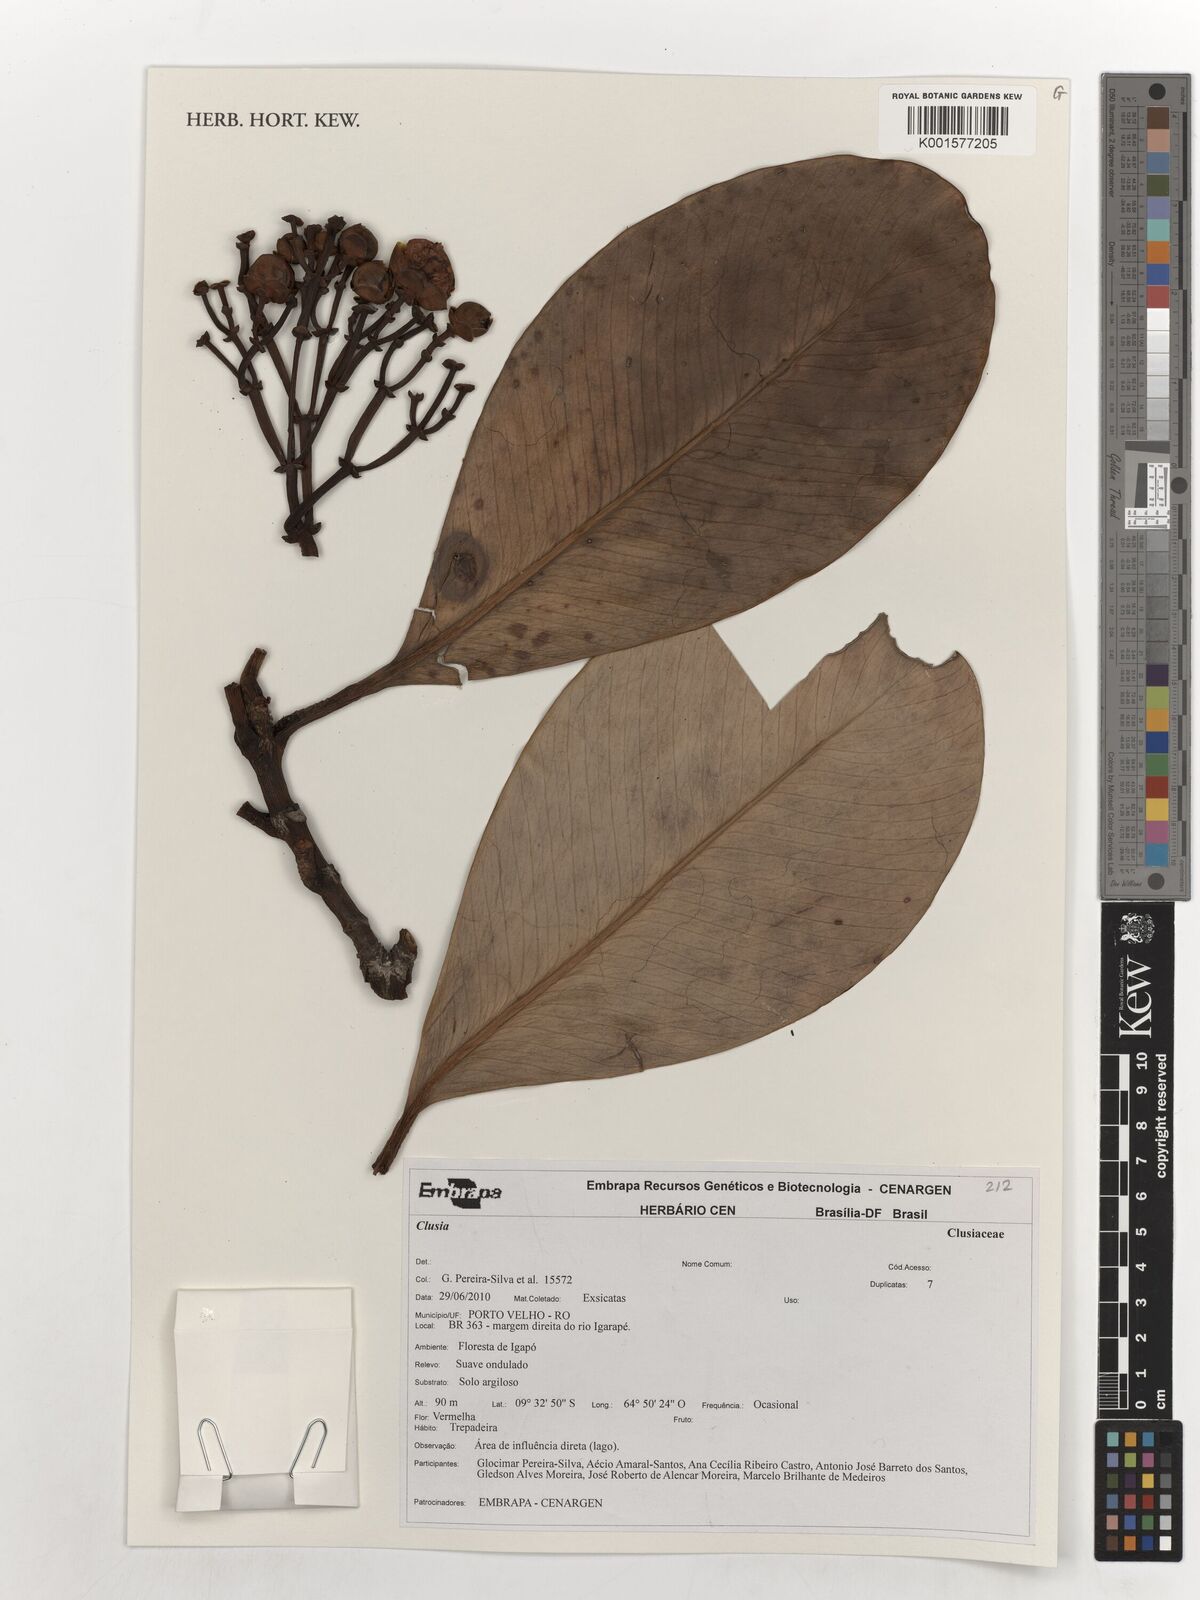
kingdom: Plantae
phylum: Tracheophyta
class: Magnoliopsida
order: Malpighiales
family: Clusiaceae
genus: Clusia
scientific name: Clusia
